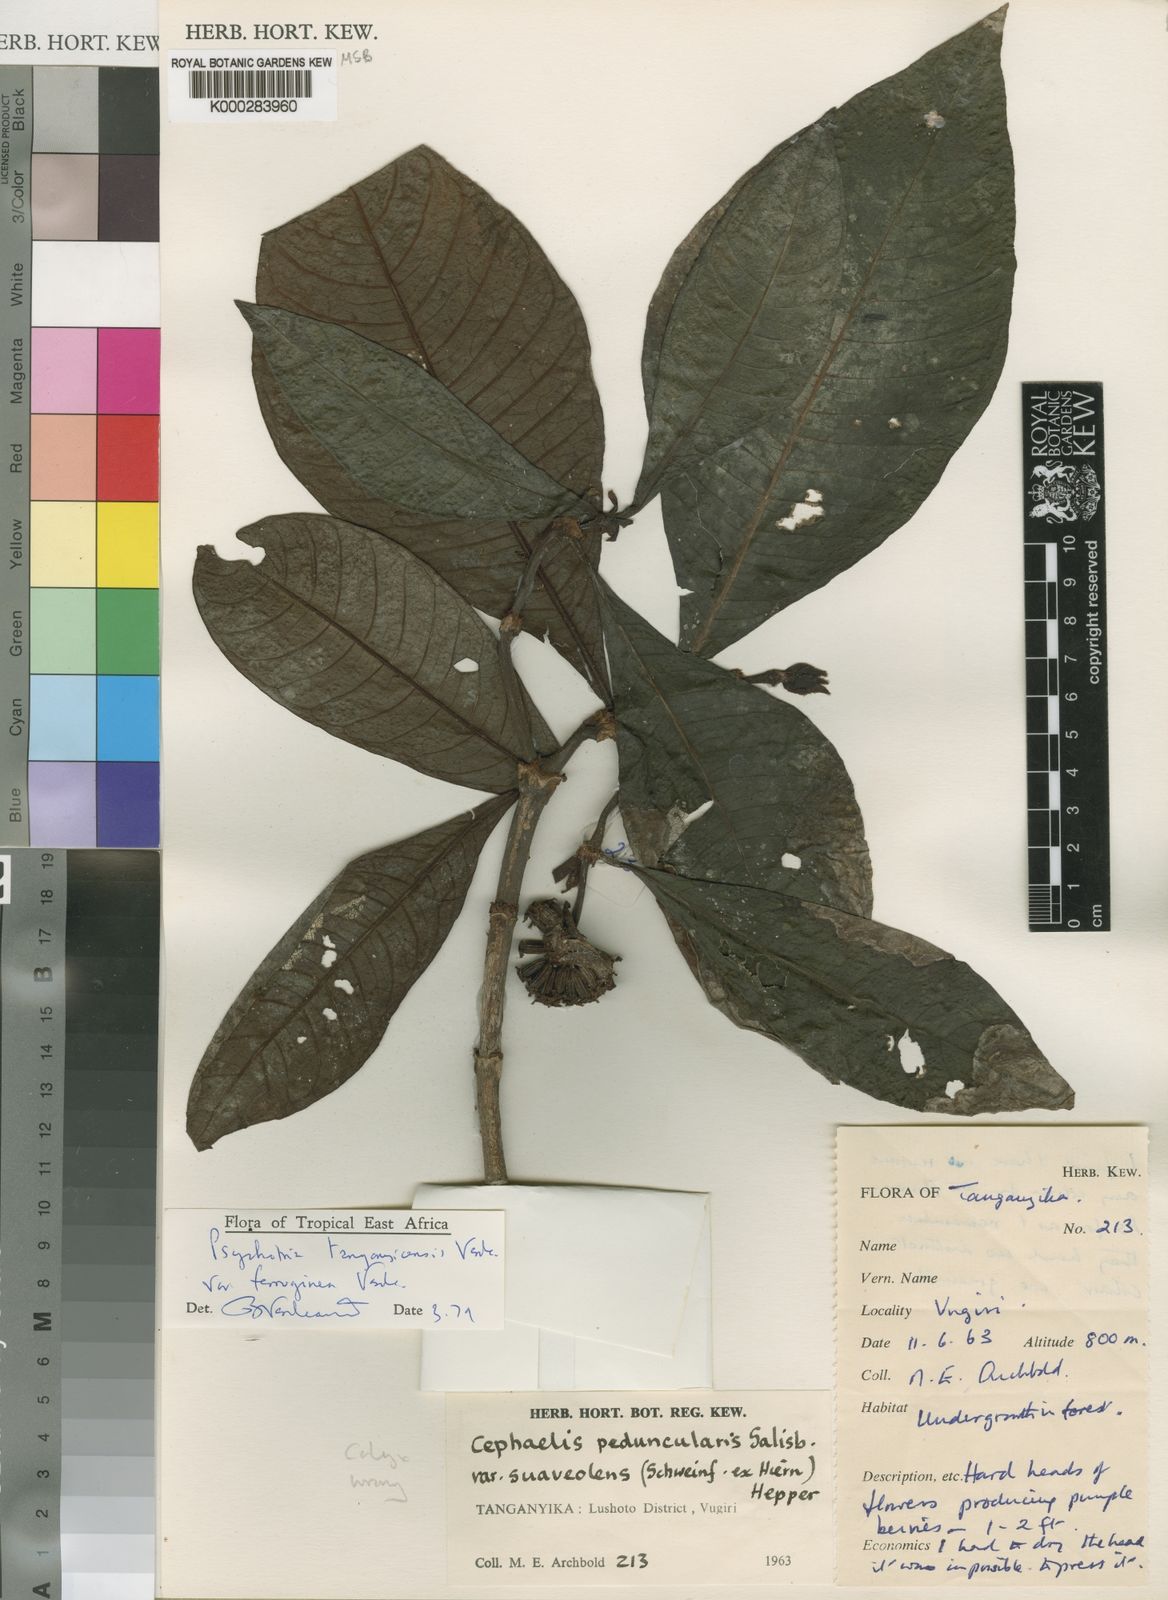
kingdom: Plantae
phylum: Tracheophyta
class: Magnoliopsida
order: Gentianales
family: Rubiaceae
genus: Psychotria
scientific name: Psychotria tanganyicensis
